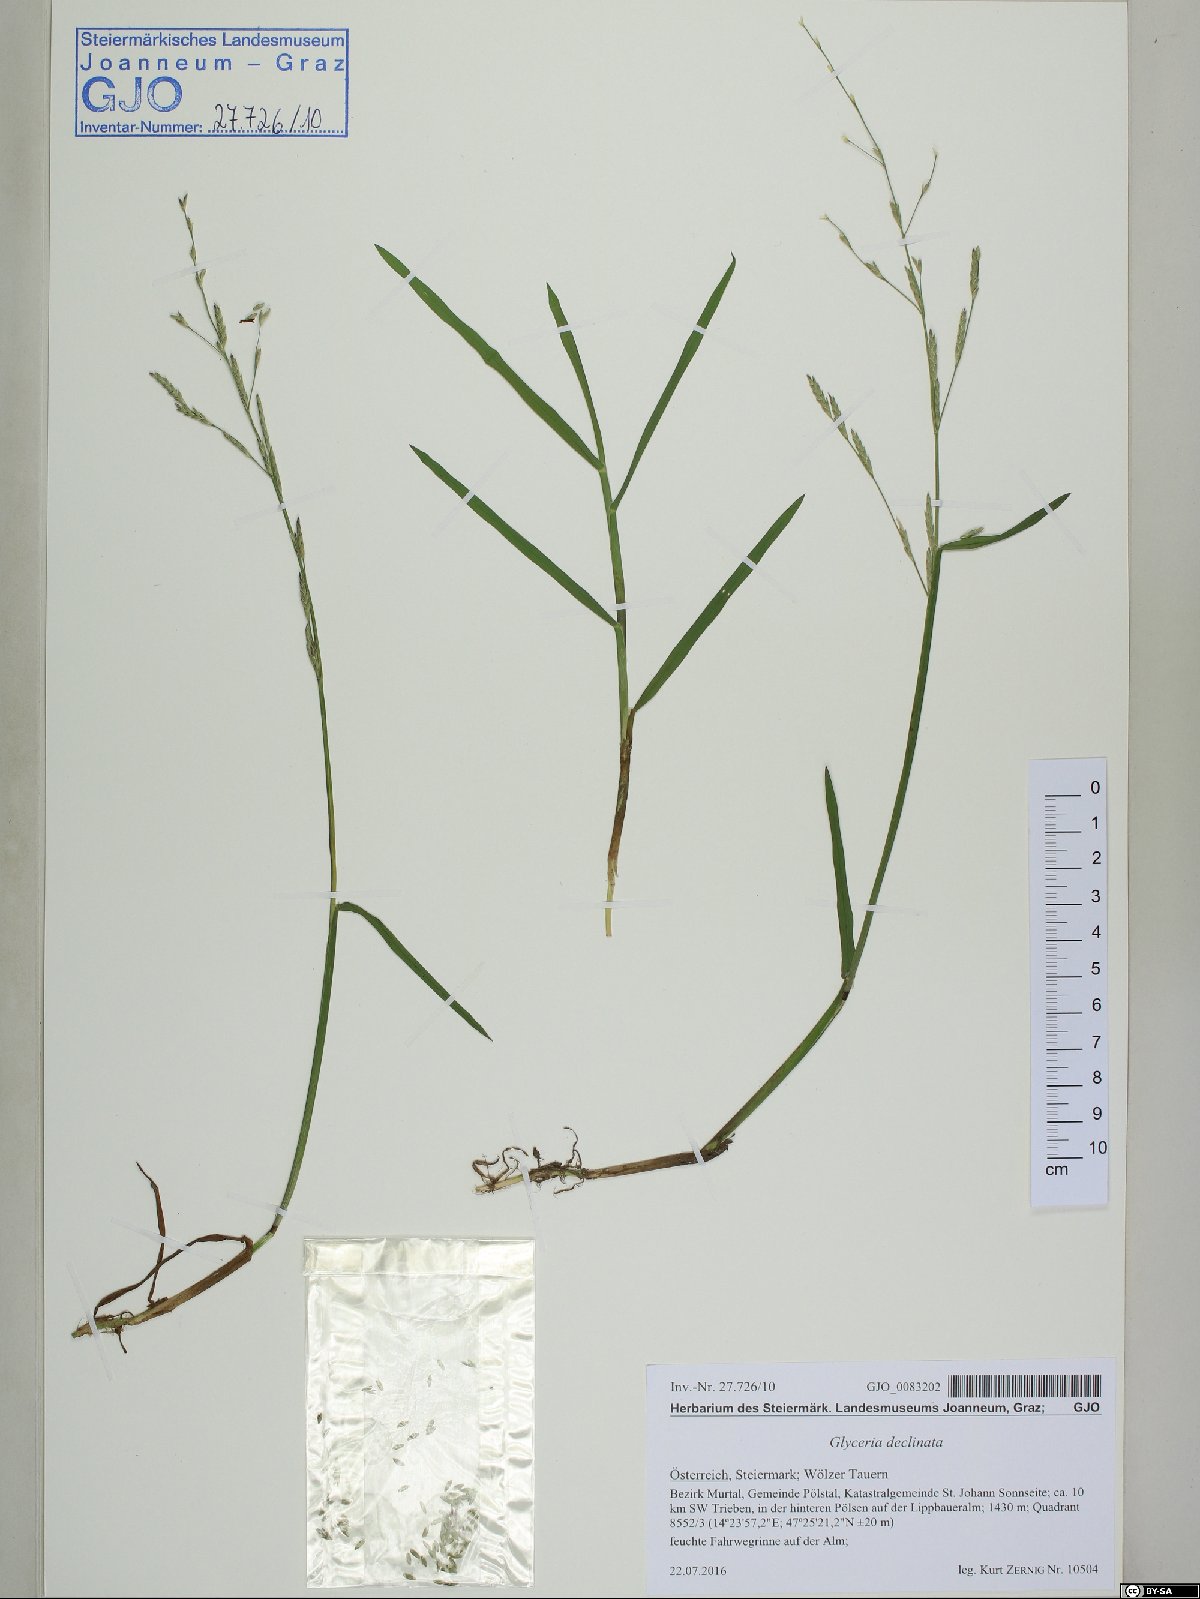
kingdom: Plantae
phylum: Tracheophyta
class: Liliopsida
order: Poales
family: Poaceae
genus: Glyceria
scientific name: Glyceria declinata
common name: Small sweet-grass
